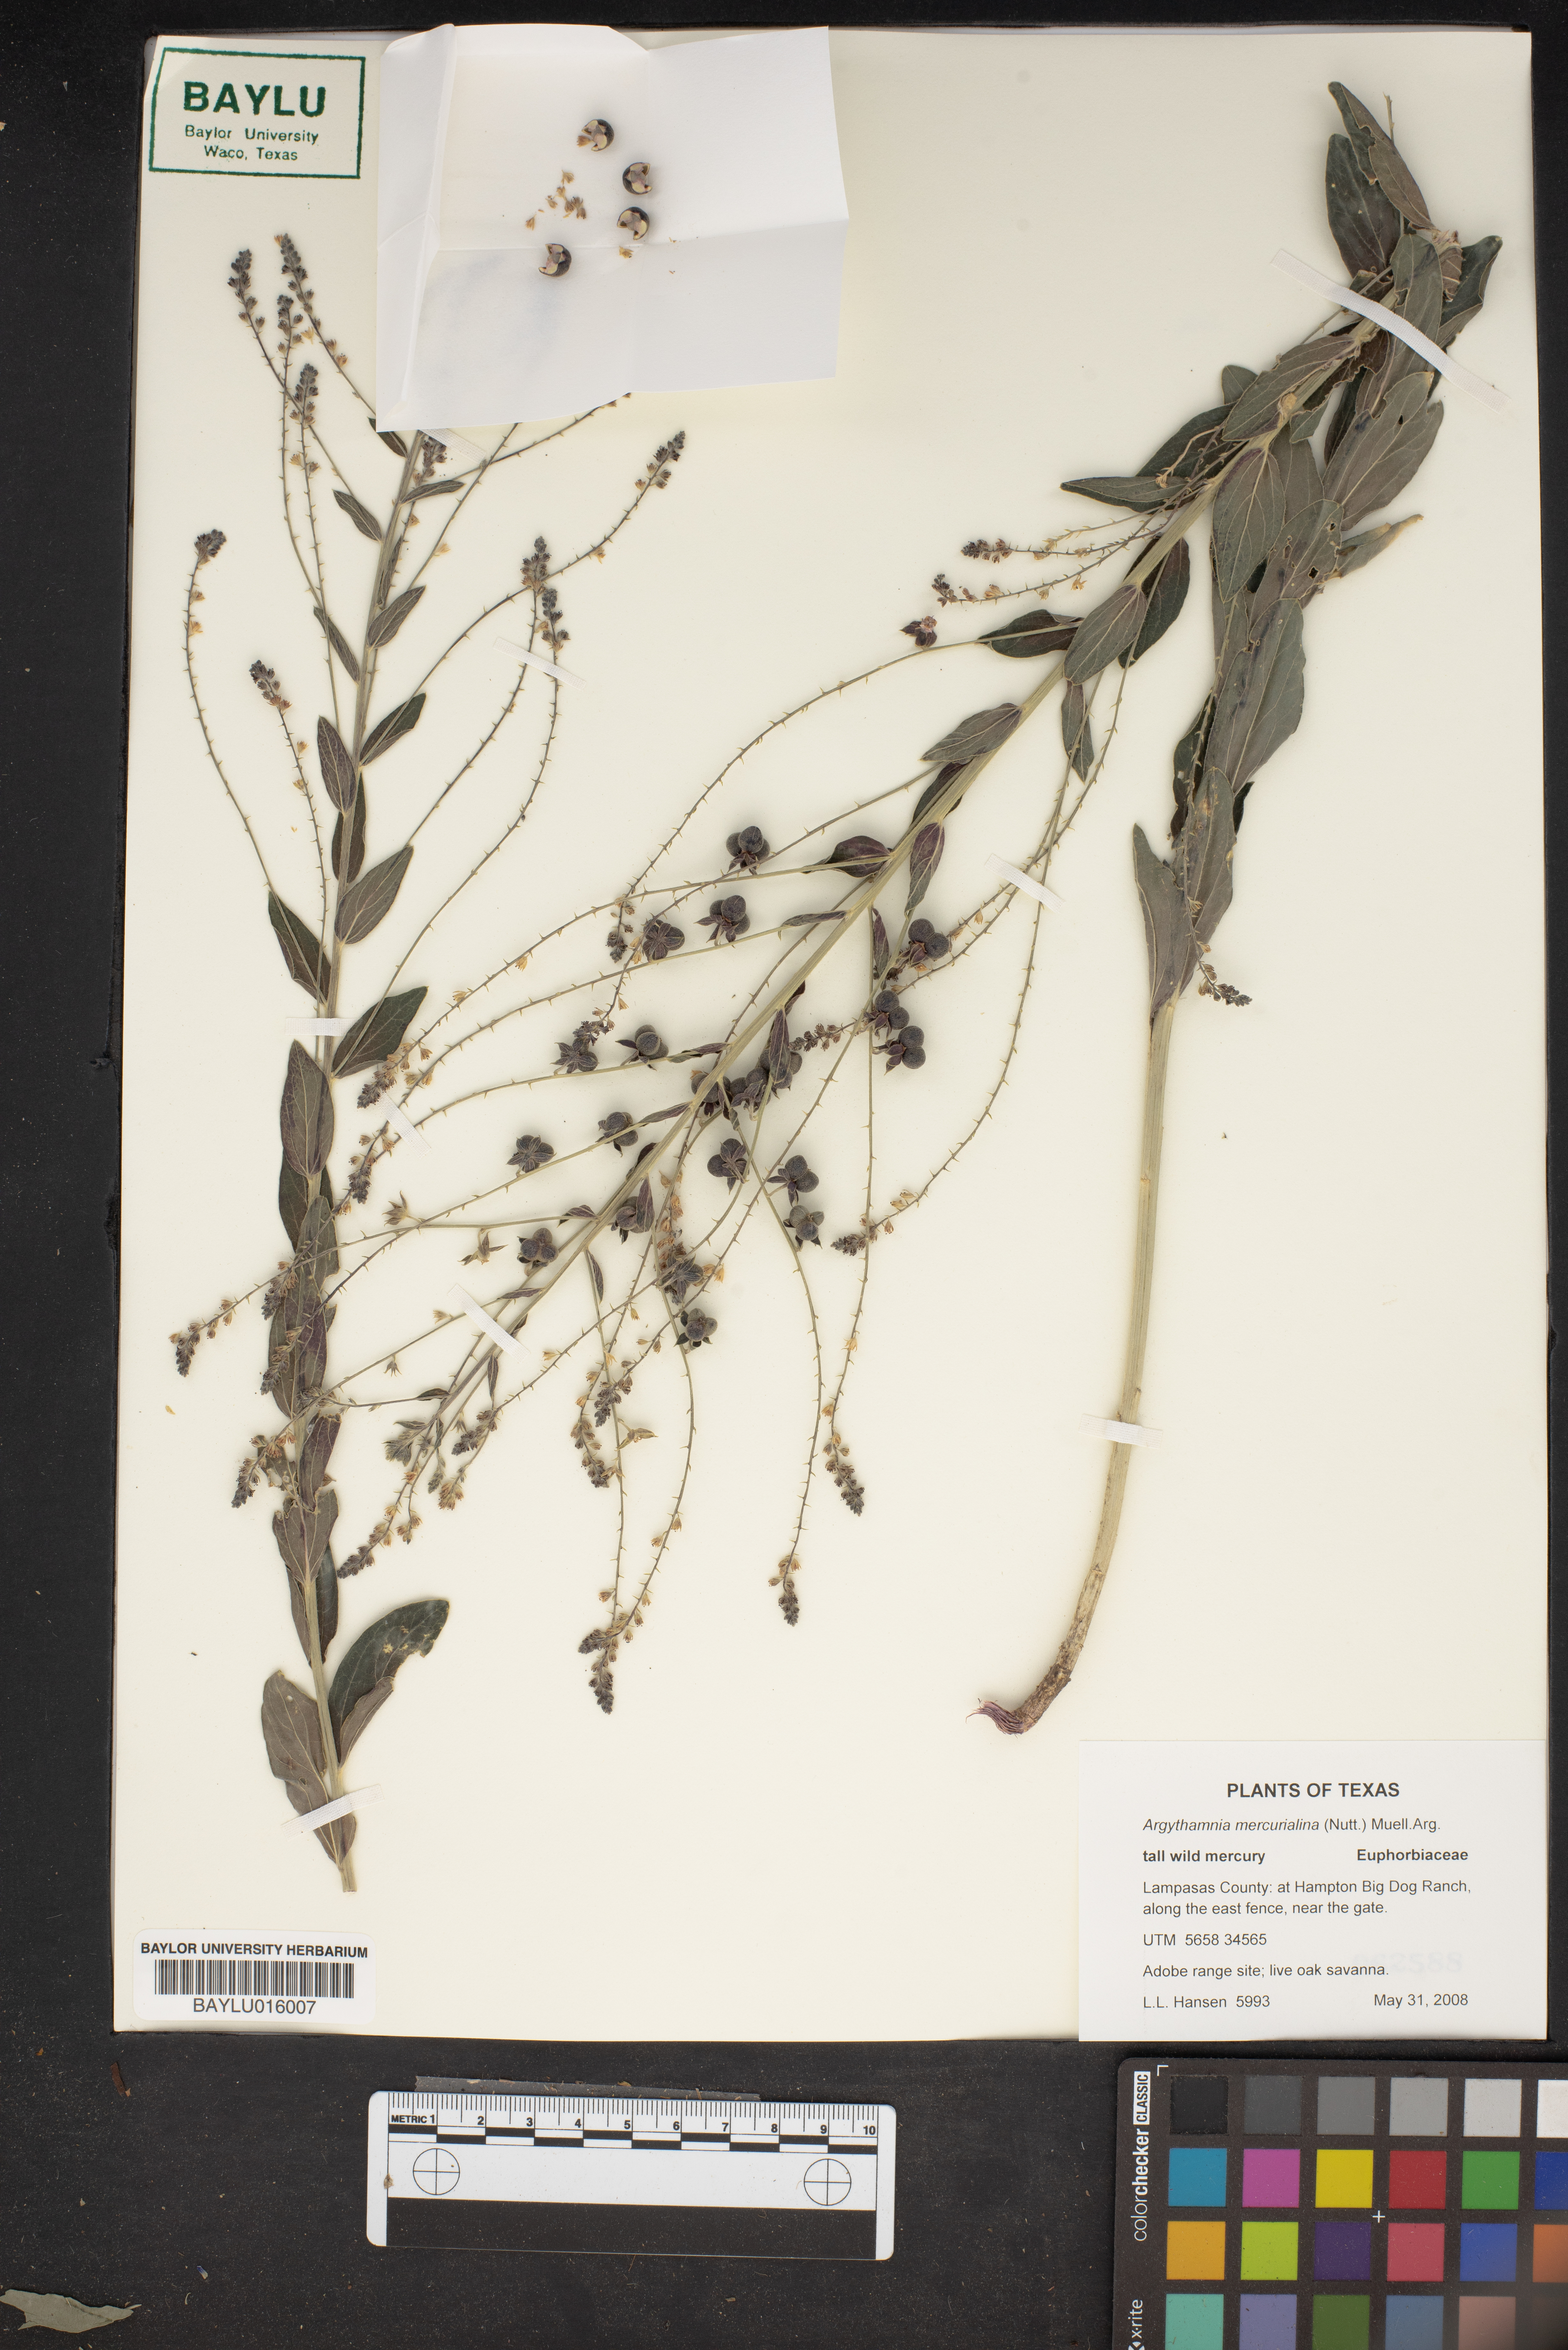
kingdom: Plantae
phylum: Tracheophyta
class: Magnoliopsida
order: Malpighiales
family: Euphorbiaceae
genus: Ditaxis
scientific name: Ditaxis mercurialina
